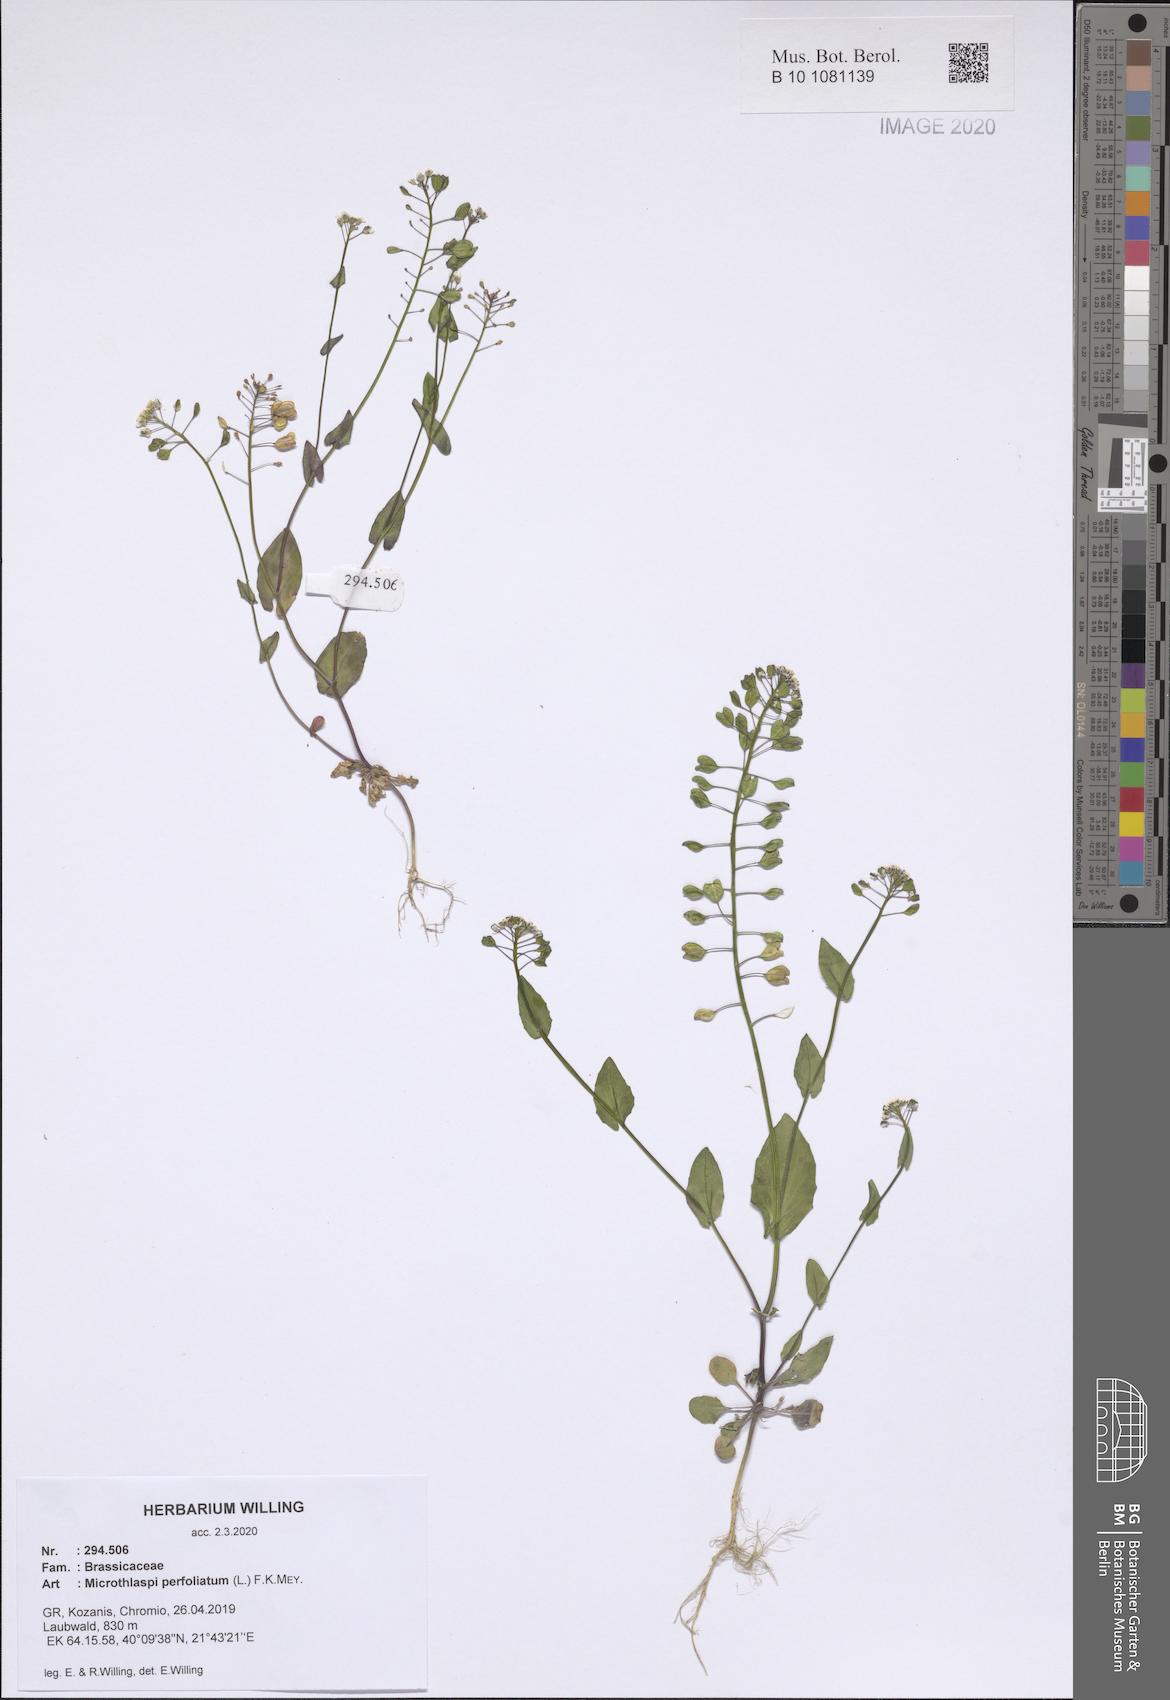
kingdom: Plantae
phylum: Tracheophyta
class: Magnoliopsida
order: Brassicales
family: Brassicaceae
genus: Noccaea
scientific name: Noccaea perfoliata
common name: Perfoliate pennycress
